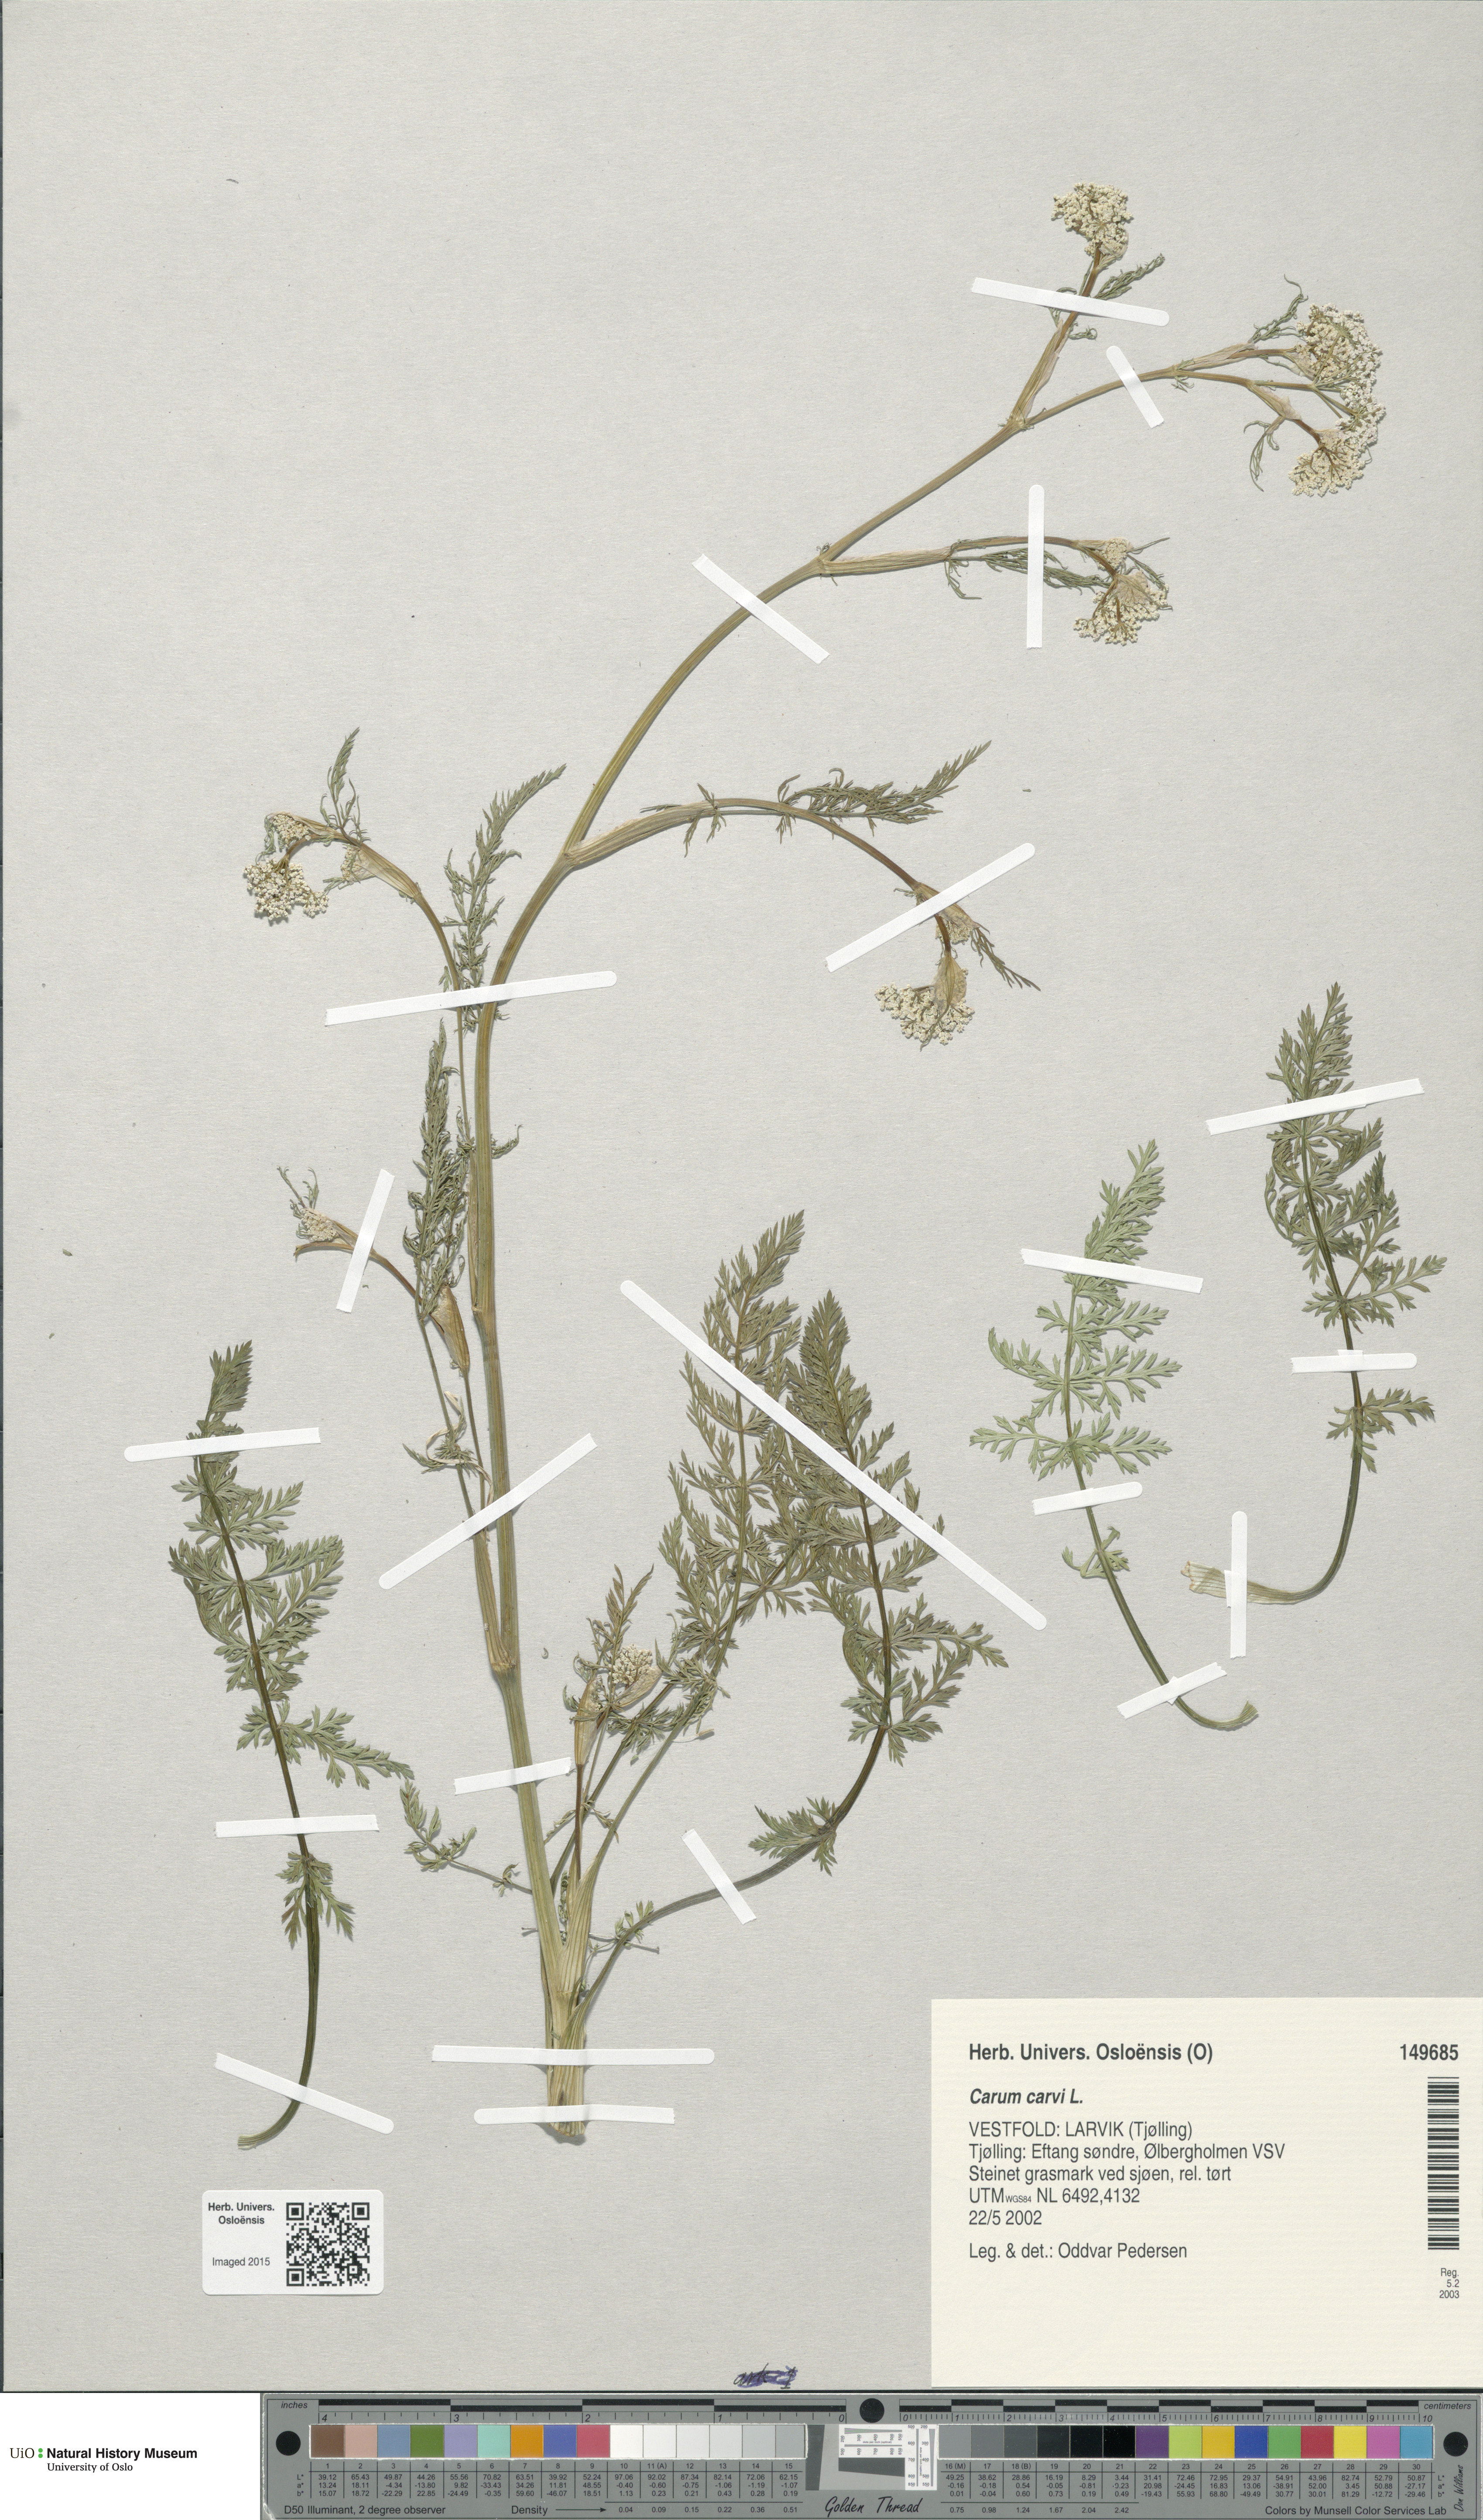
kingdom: Plantae
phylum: Tracheophyta
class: Magnoliopsida
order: Apiales
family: Apiaceae
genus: Carum
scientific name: Carum carvi
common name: Caraway
